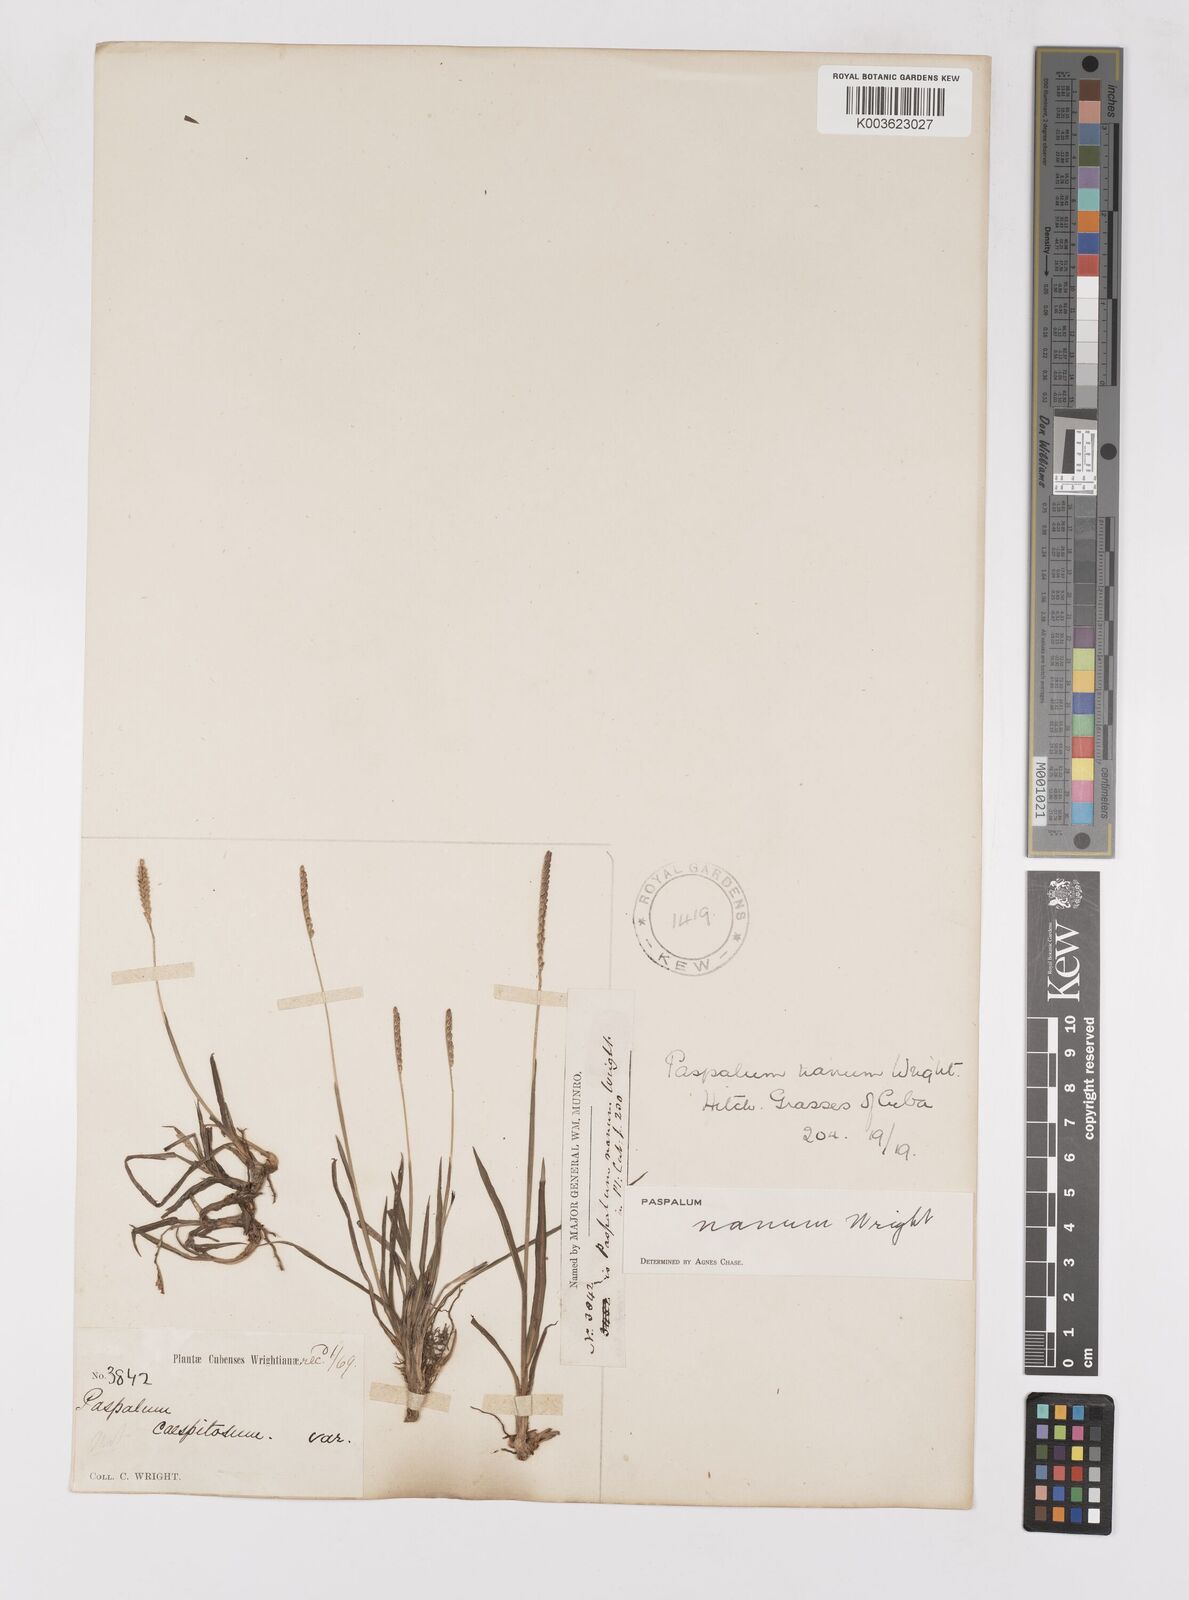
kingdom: Plantae
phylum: Tracheophyta
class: Liliopsida
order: Poales
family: Poaceae
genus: Paspalum
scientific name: Paspalum nanum
